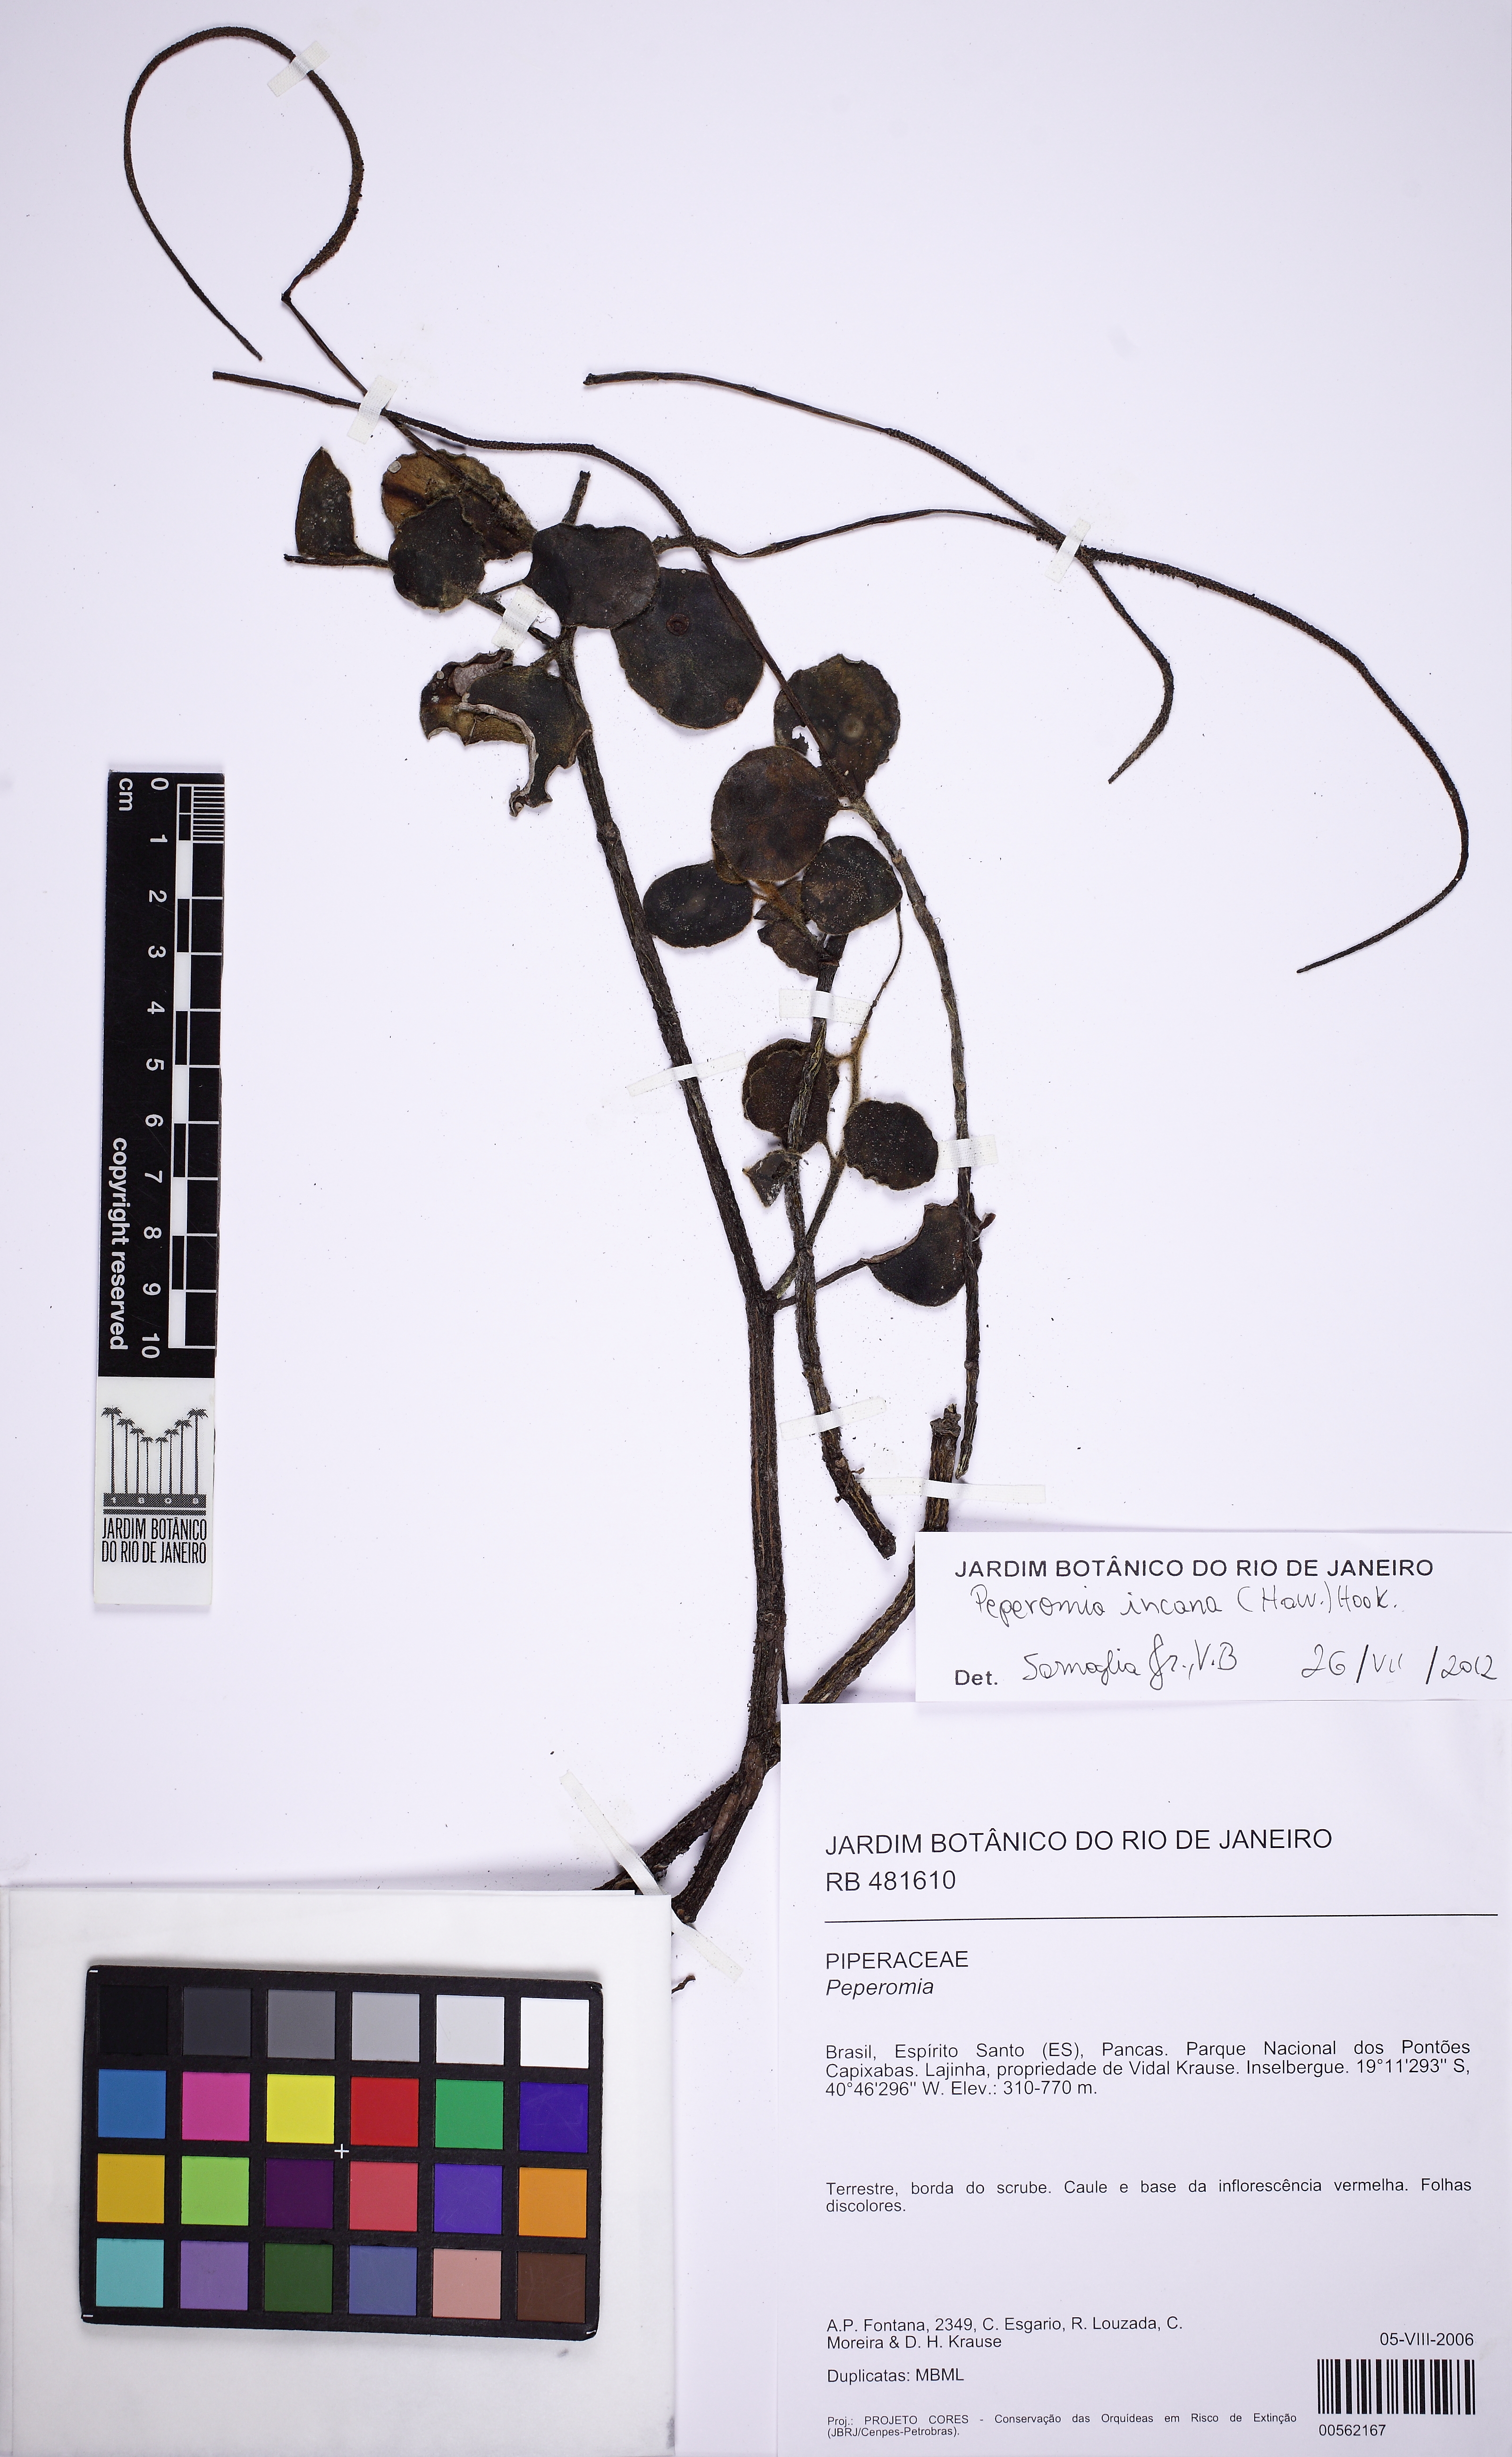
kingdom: Plantae
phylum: Tracheophyta
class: Magnoliopsida
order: Piperales
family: Piperaceae
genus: Peperomia
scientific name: Peperomia incana
